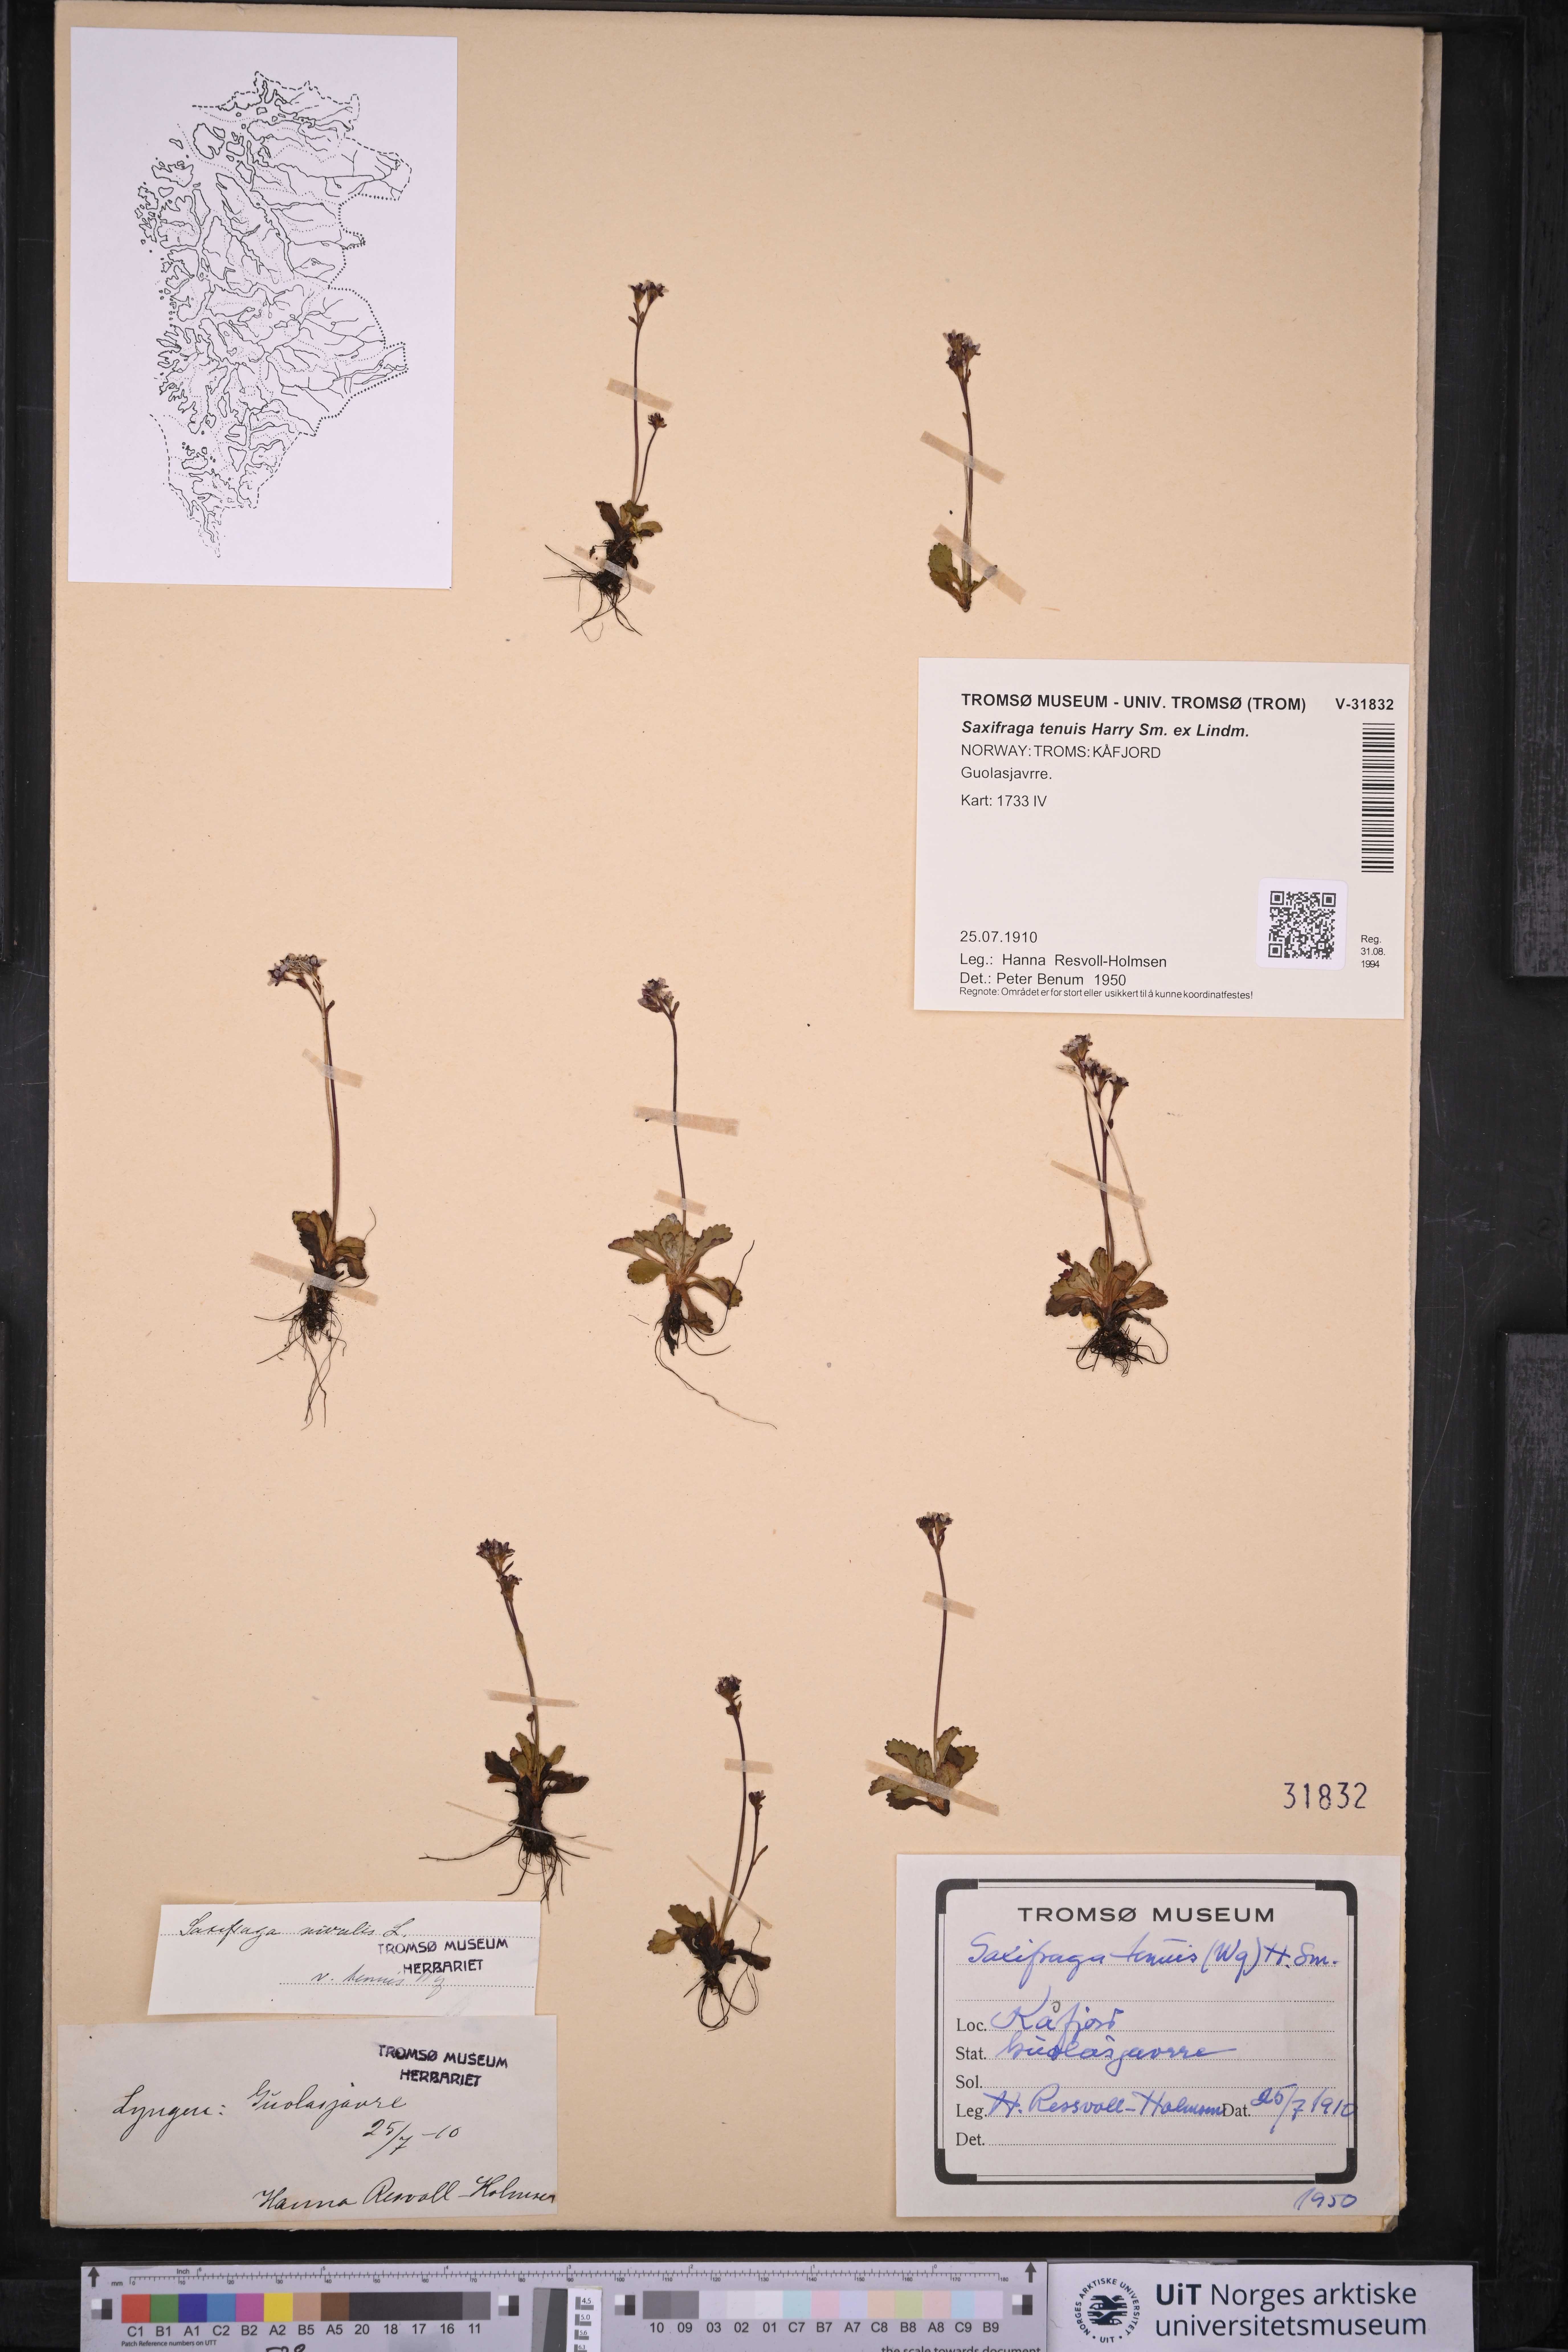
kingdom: Plantae
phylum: Tracheophyta
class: Magnoliopsida
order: Saxifragales
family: Saxifragaceae
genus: Micranthes
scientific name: Micranthes tenuis
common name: Ottertail pass saxifrage
